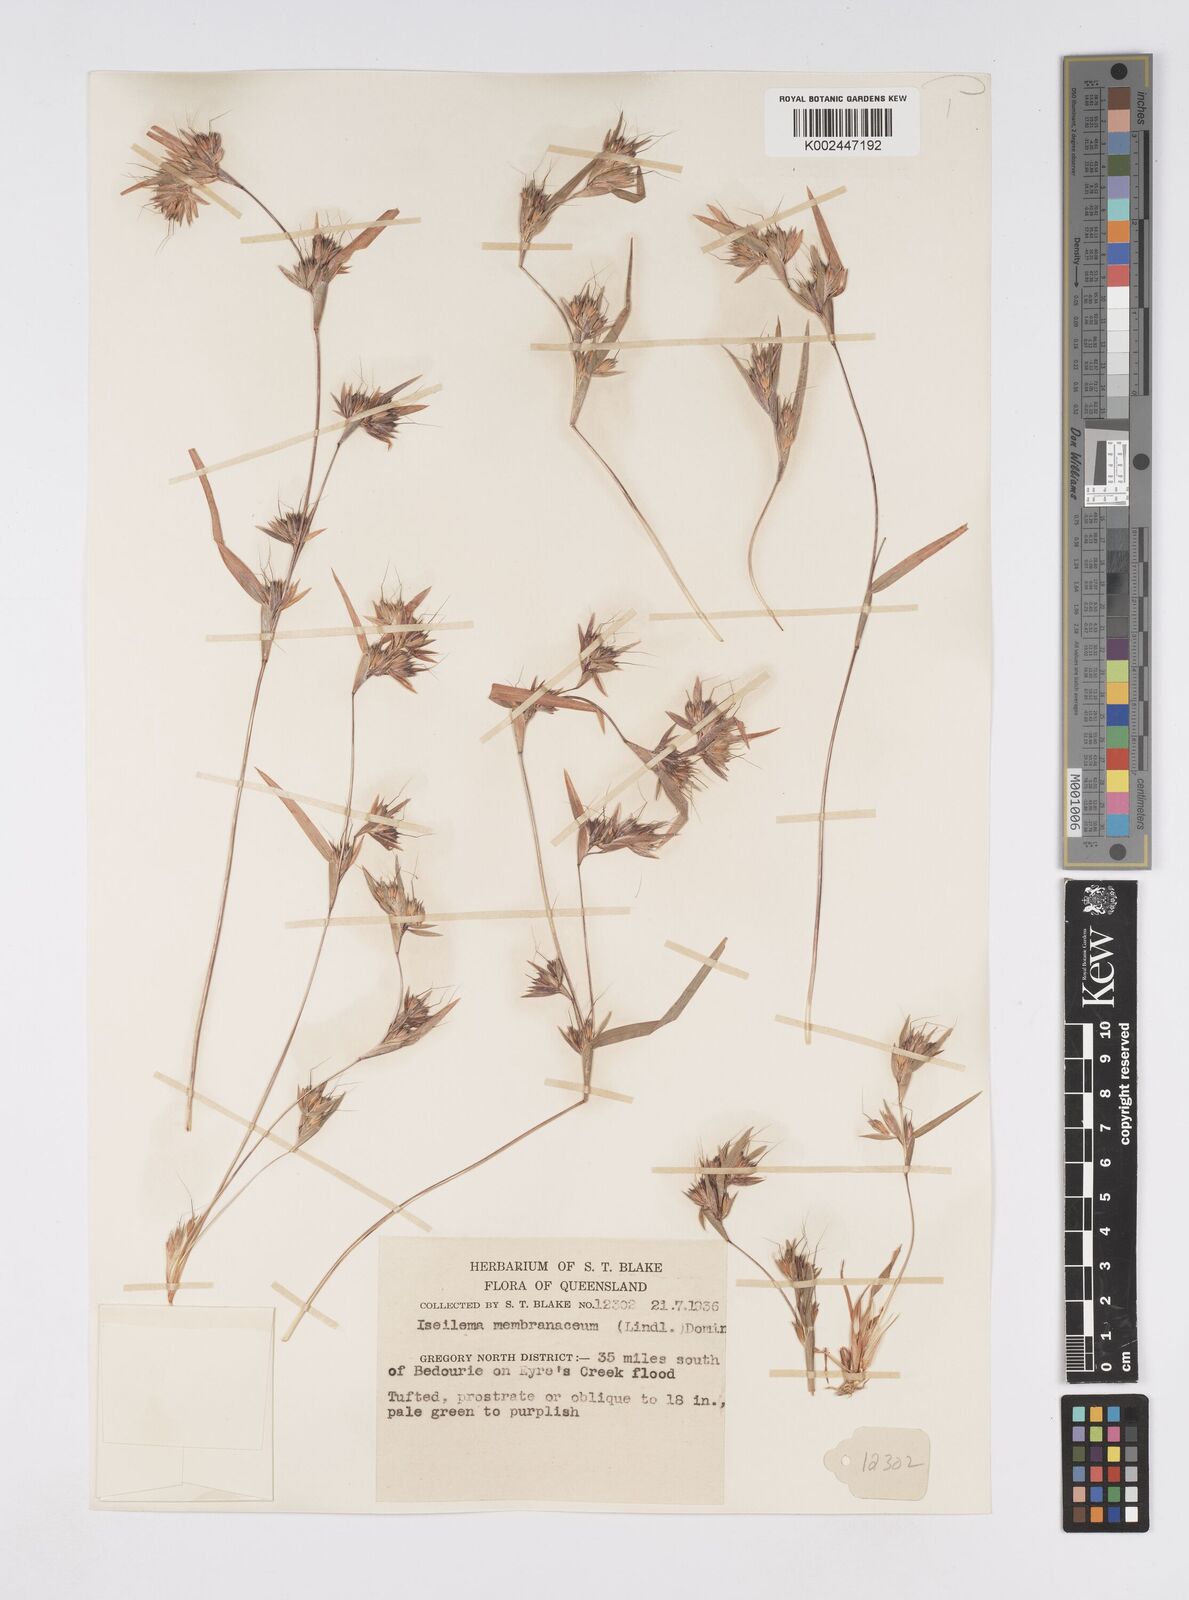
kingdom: Plantae
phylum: Tracheophyta
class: Liliopsida
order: Poales
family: Poaceae
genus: Iseilema
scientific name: Iseilema membranaceum
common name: Small flinders grass
